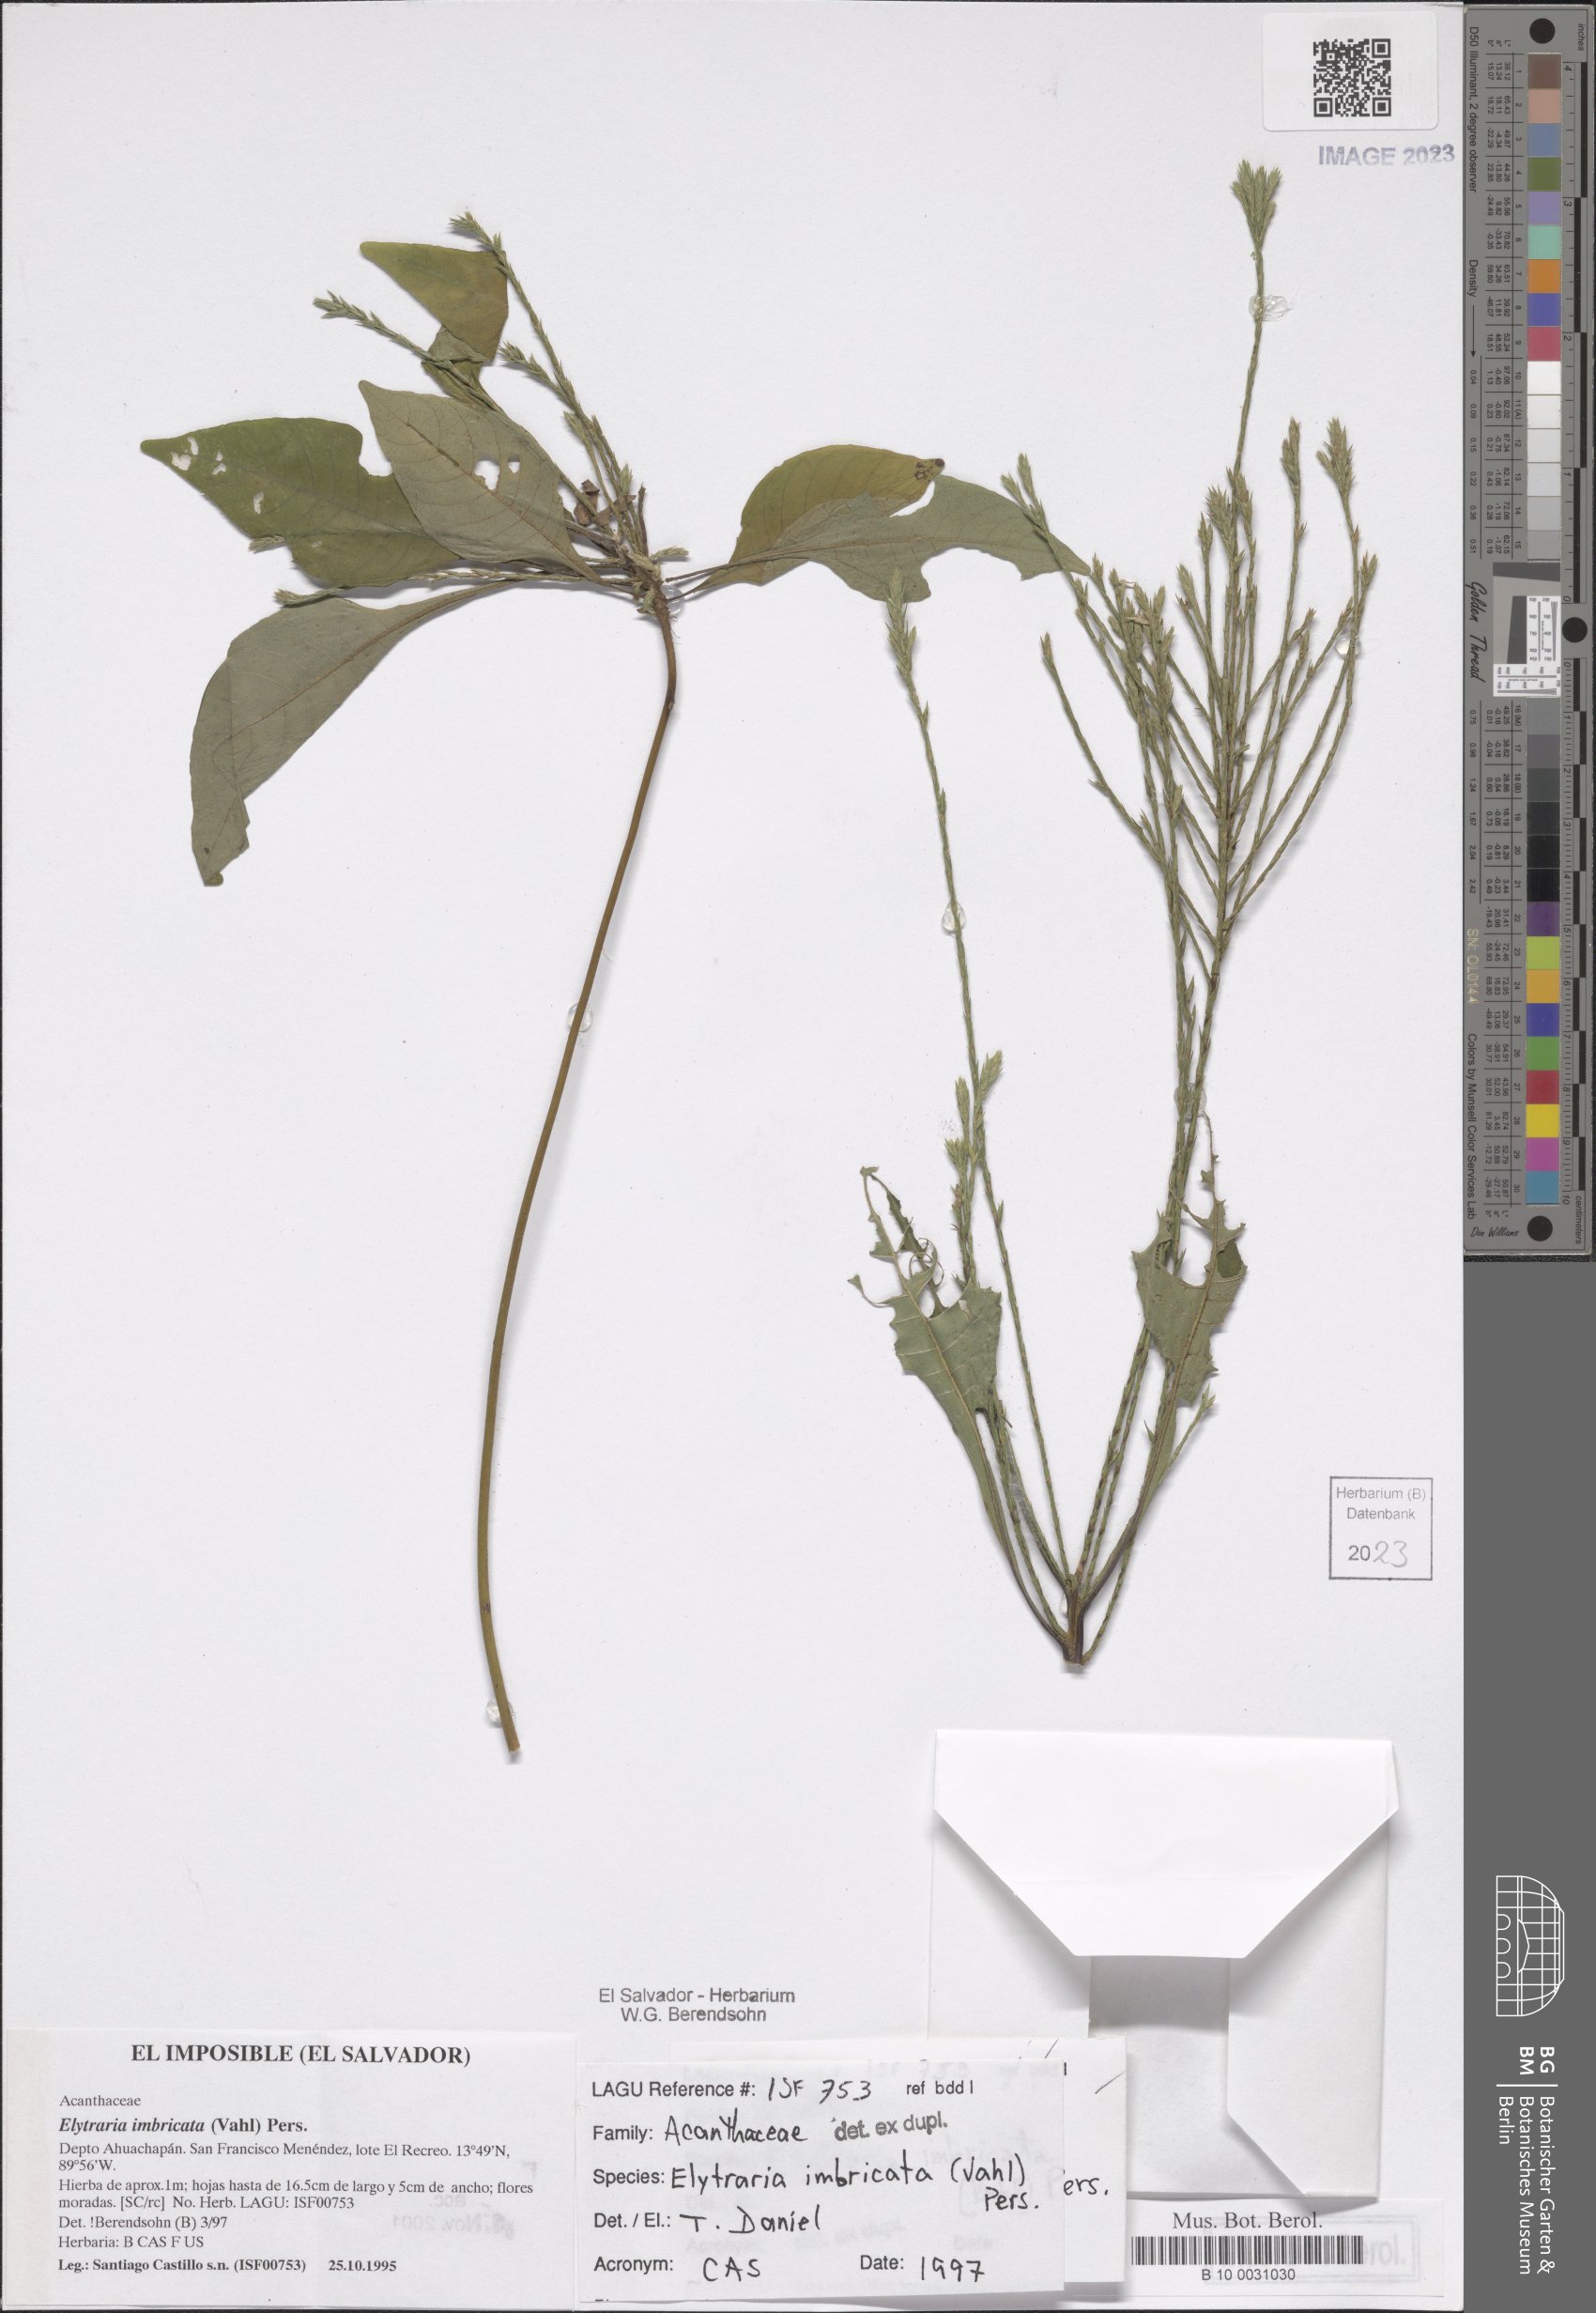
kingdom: Plantae
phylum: Tracheophyta
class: Magnoliopsida
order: Lamiales
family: Acanthaceae
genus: Elytraria
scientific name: Elytraria imbricata
